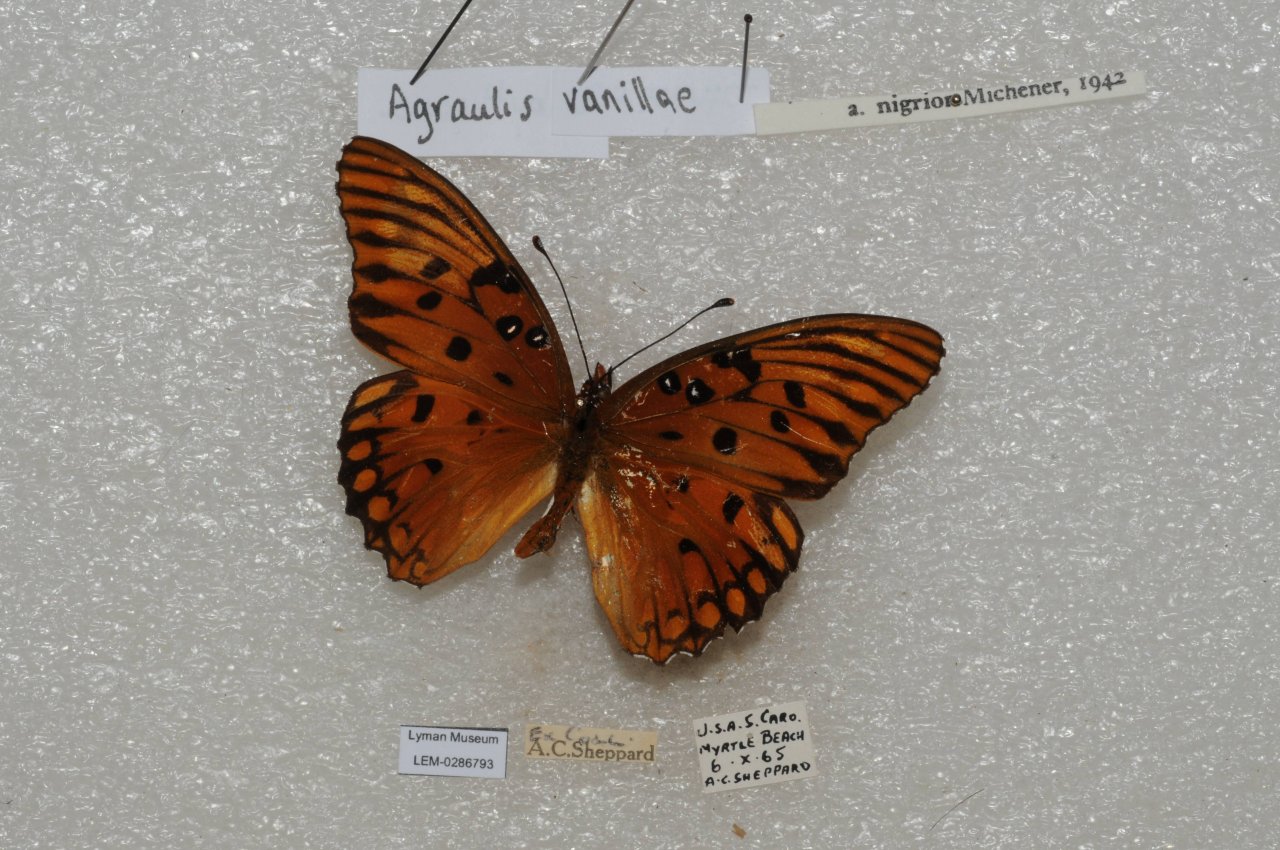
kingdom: Animalia
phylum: Arthropoda
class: Insecta
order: Lepidoptera
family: Nymphalidae
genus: Dione
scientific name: Dione vanillae
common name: Gulf Fritillary
